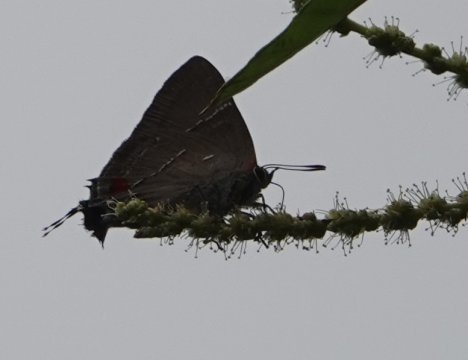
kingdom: Animalia
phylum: Arthropoda
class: Insecta
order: Lepidoptera
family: Lycaenidae
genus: Parrhasius
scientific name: Parrhasius m-album
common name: White-m Hairstreak
